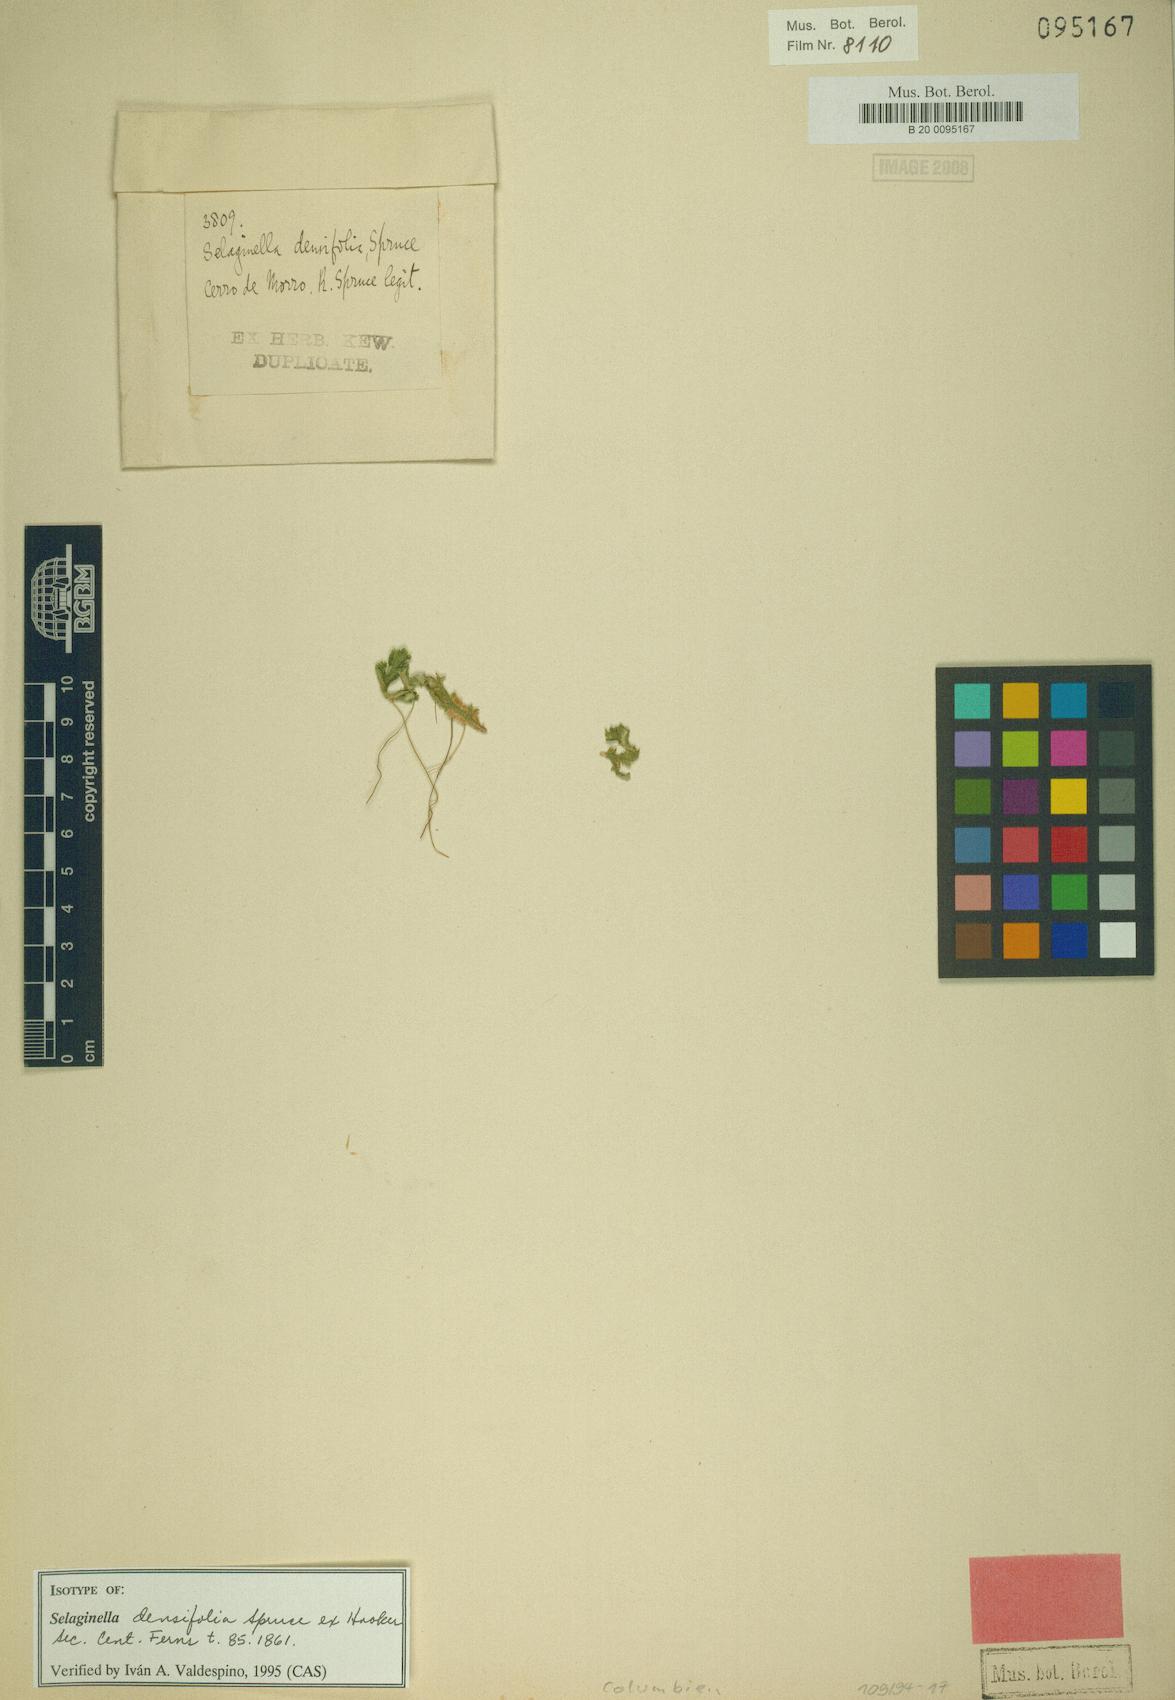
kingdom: Plantae
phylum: Tracheophyta
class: Lycopodiopsida
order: Selaginellales
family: Selaginellaceae
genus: Selaginella
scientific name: Selaginella densifolia
